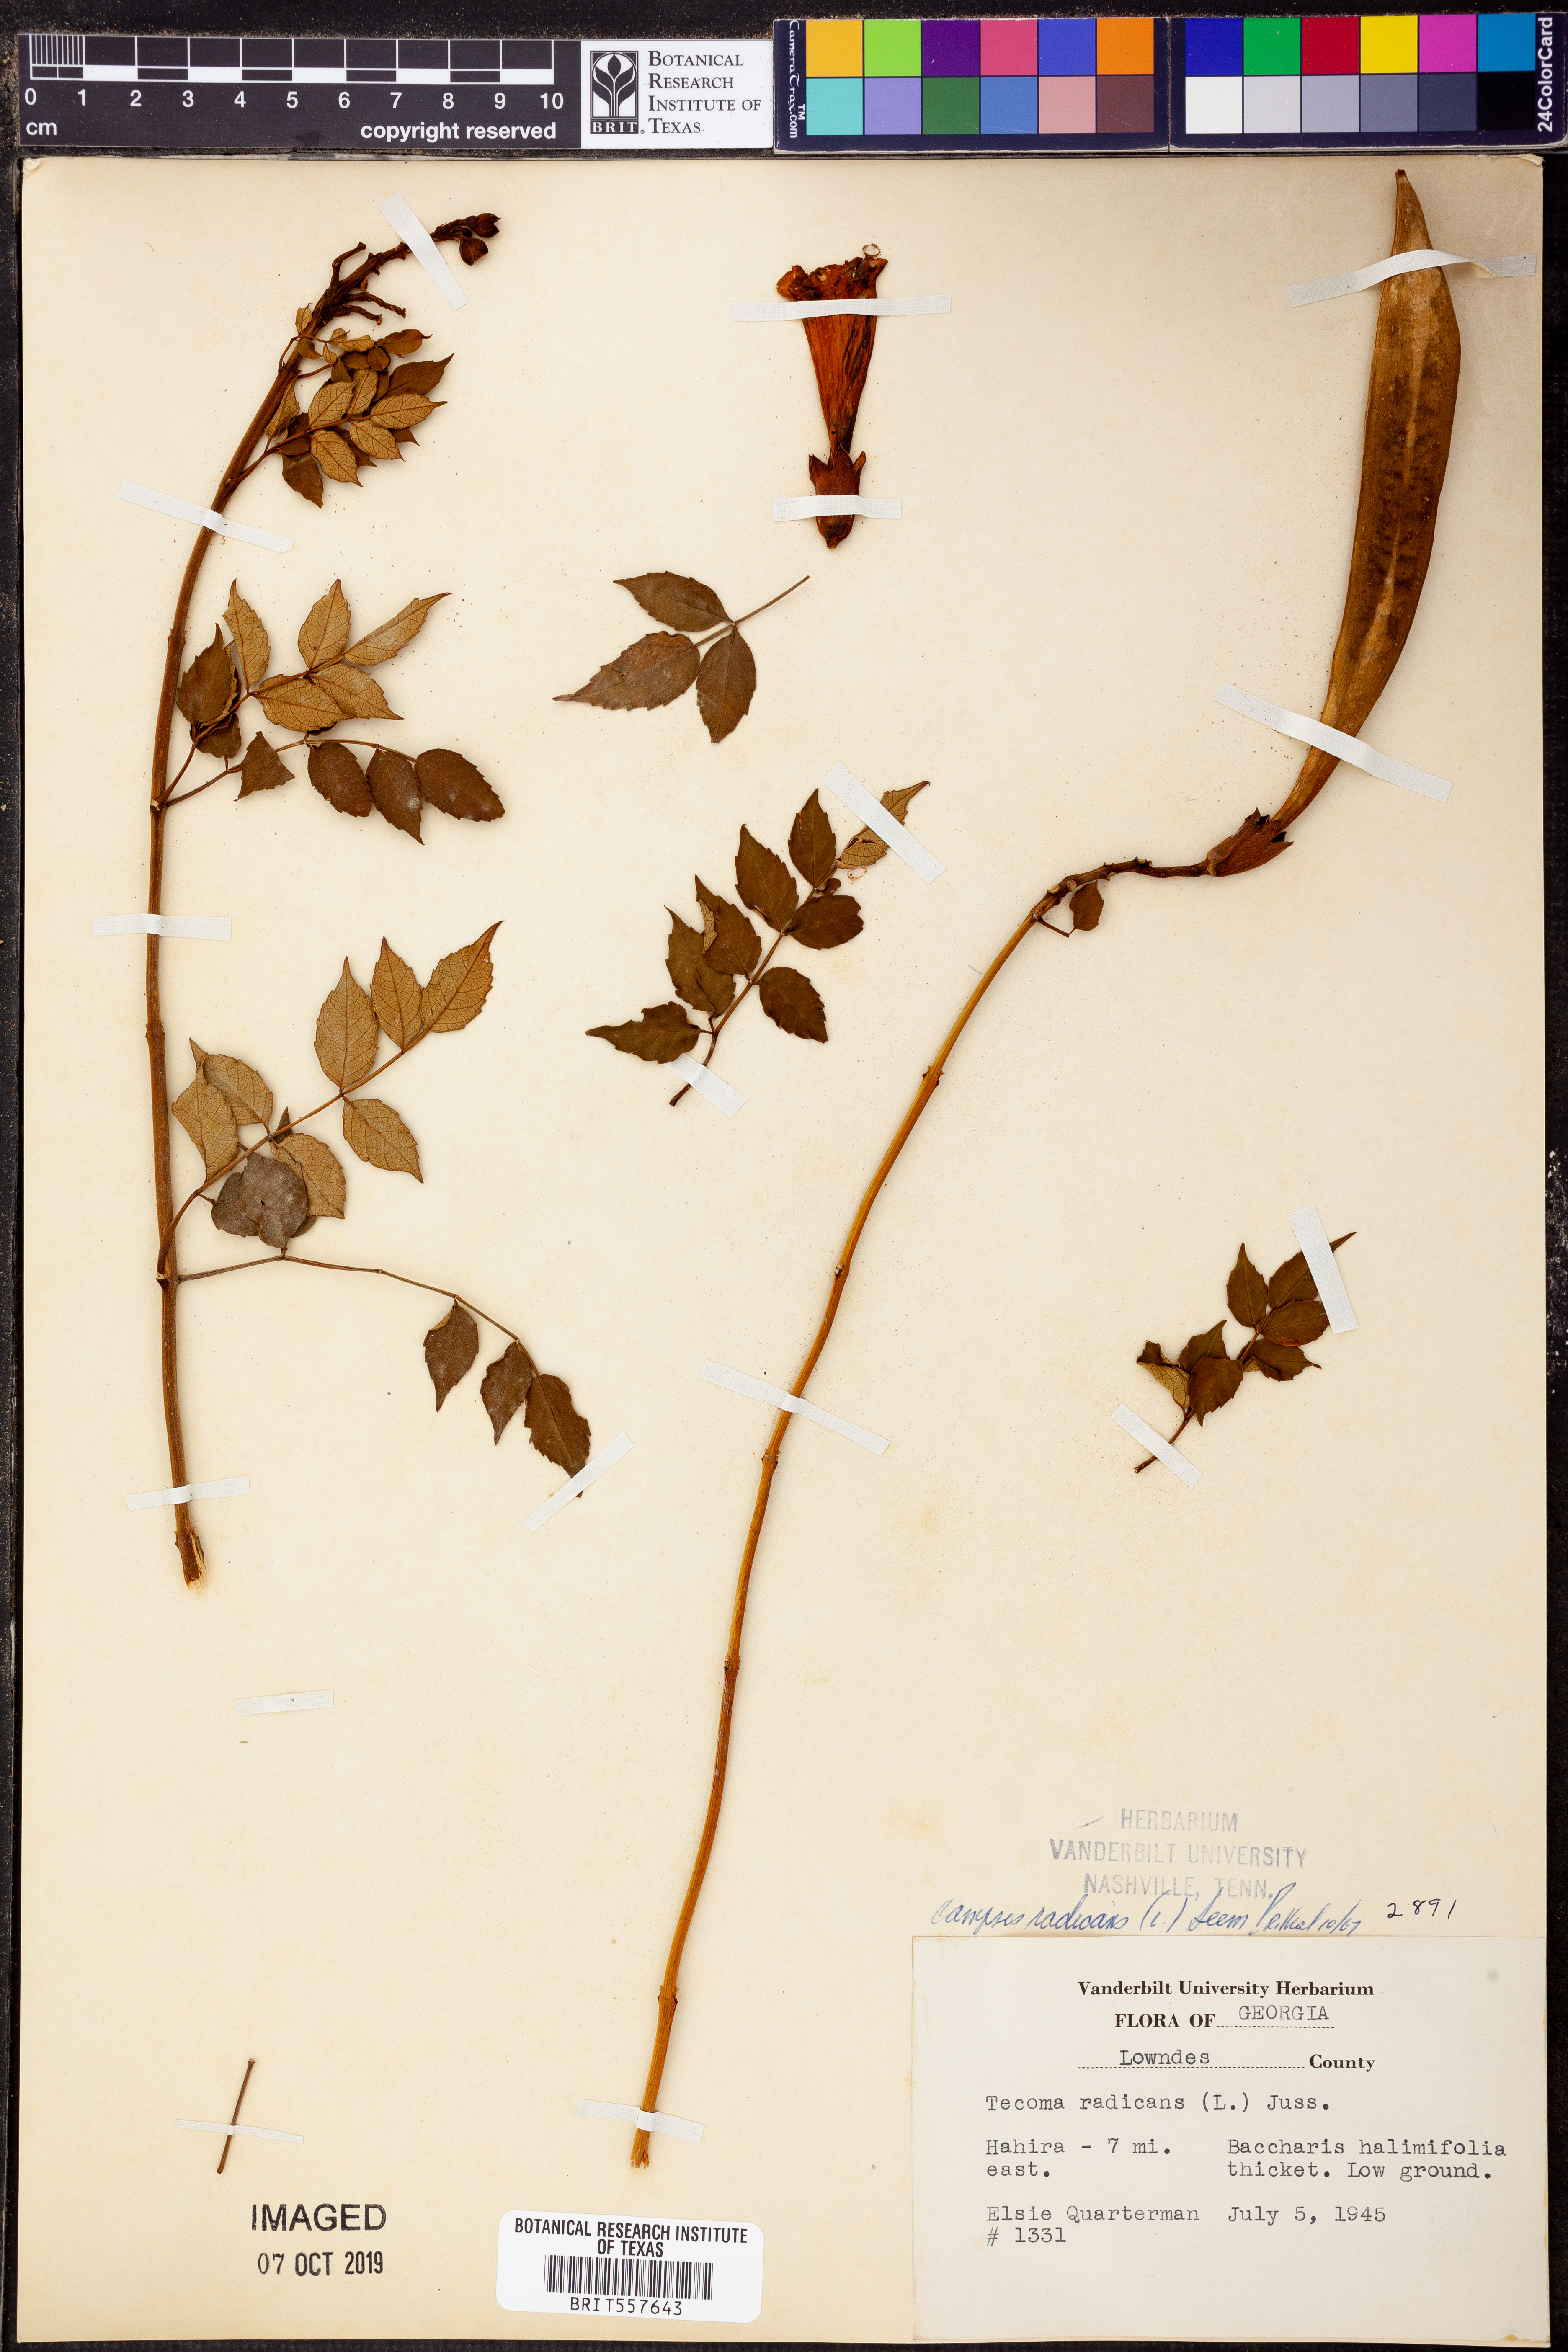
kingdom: Plantae
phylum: Tracheophyta
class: Magnoliopsida
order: Lamiales
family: Bignoniaceae
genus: Campsis
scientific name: Campsis radicans
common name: Trumpet-creeper
